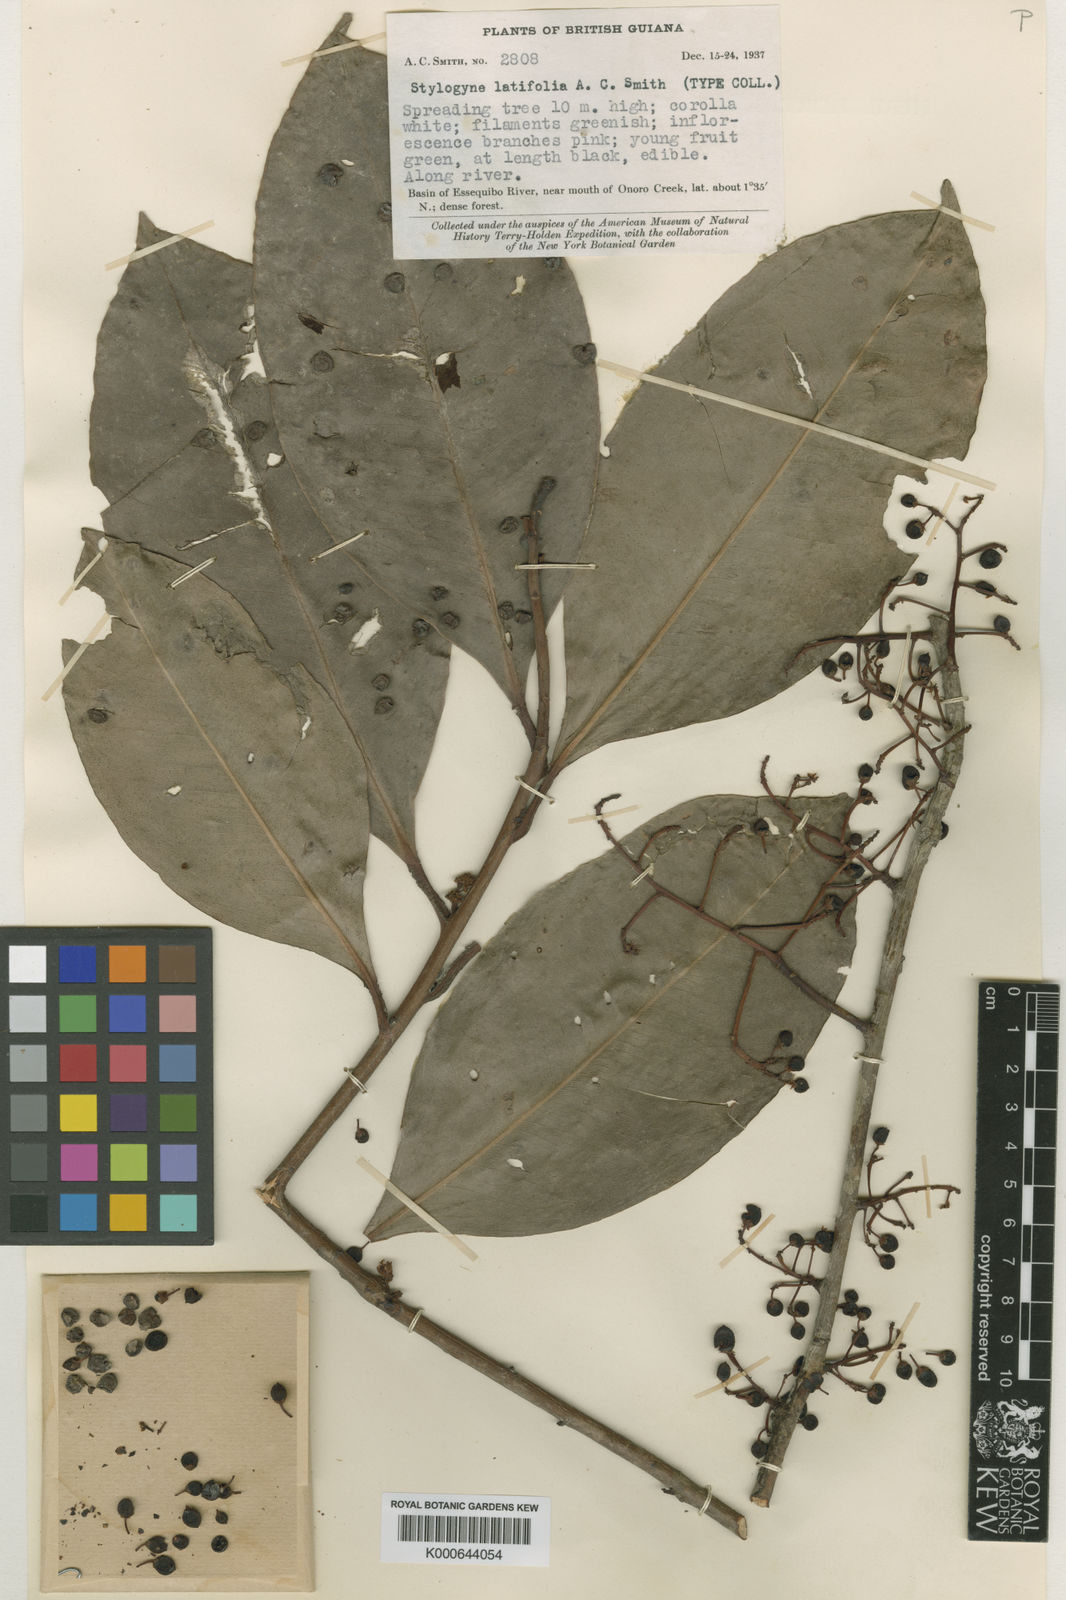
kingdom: Plantae
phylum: Tracheophyta
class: Magnoliopsida
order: Ericales
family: Primulaceae
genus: Stylogyne
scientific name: Stylogyne micrantha
